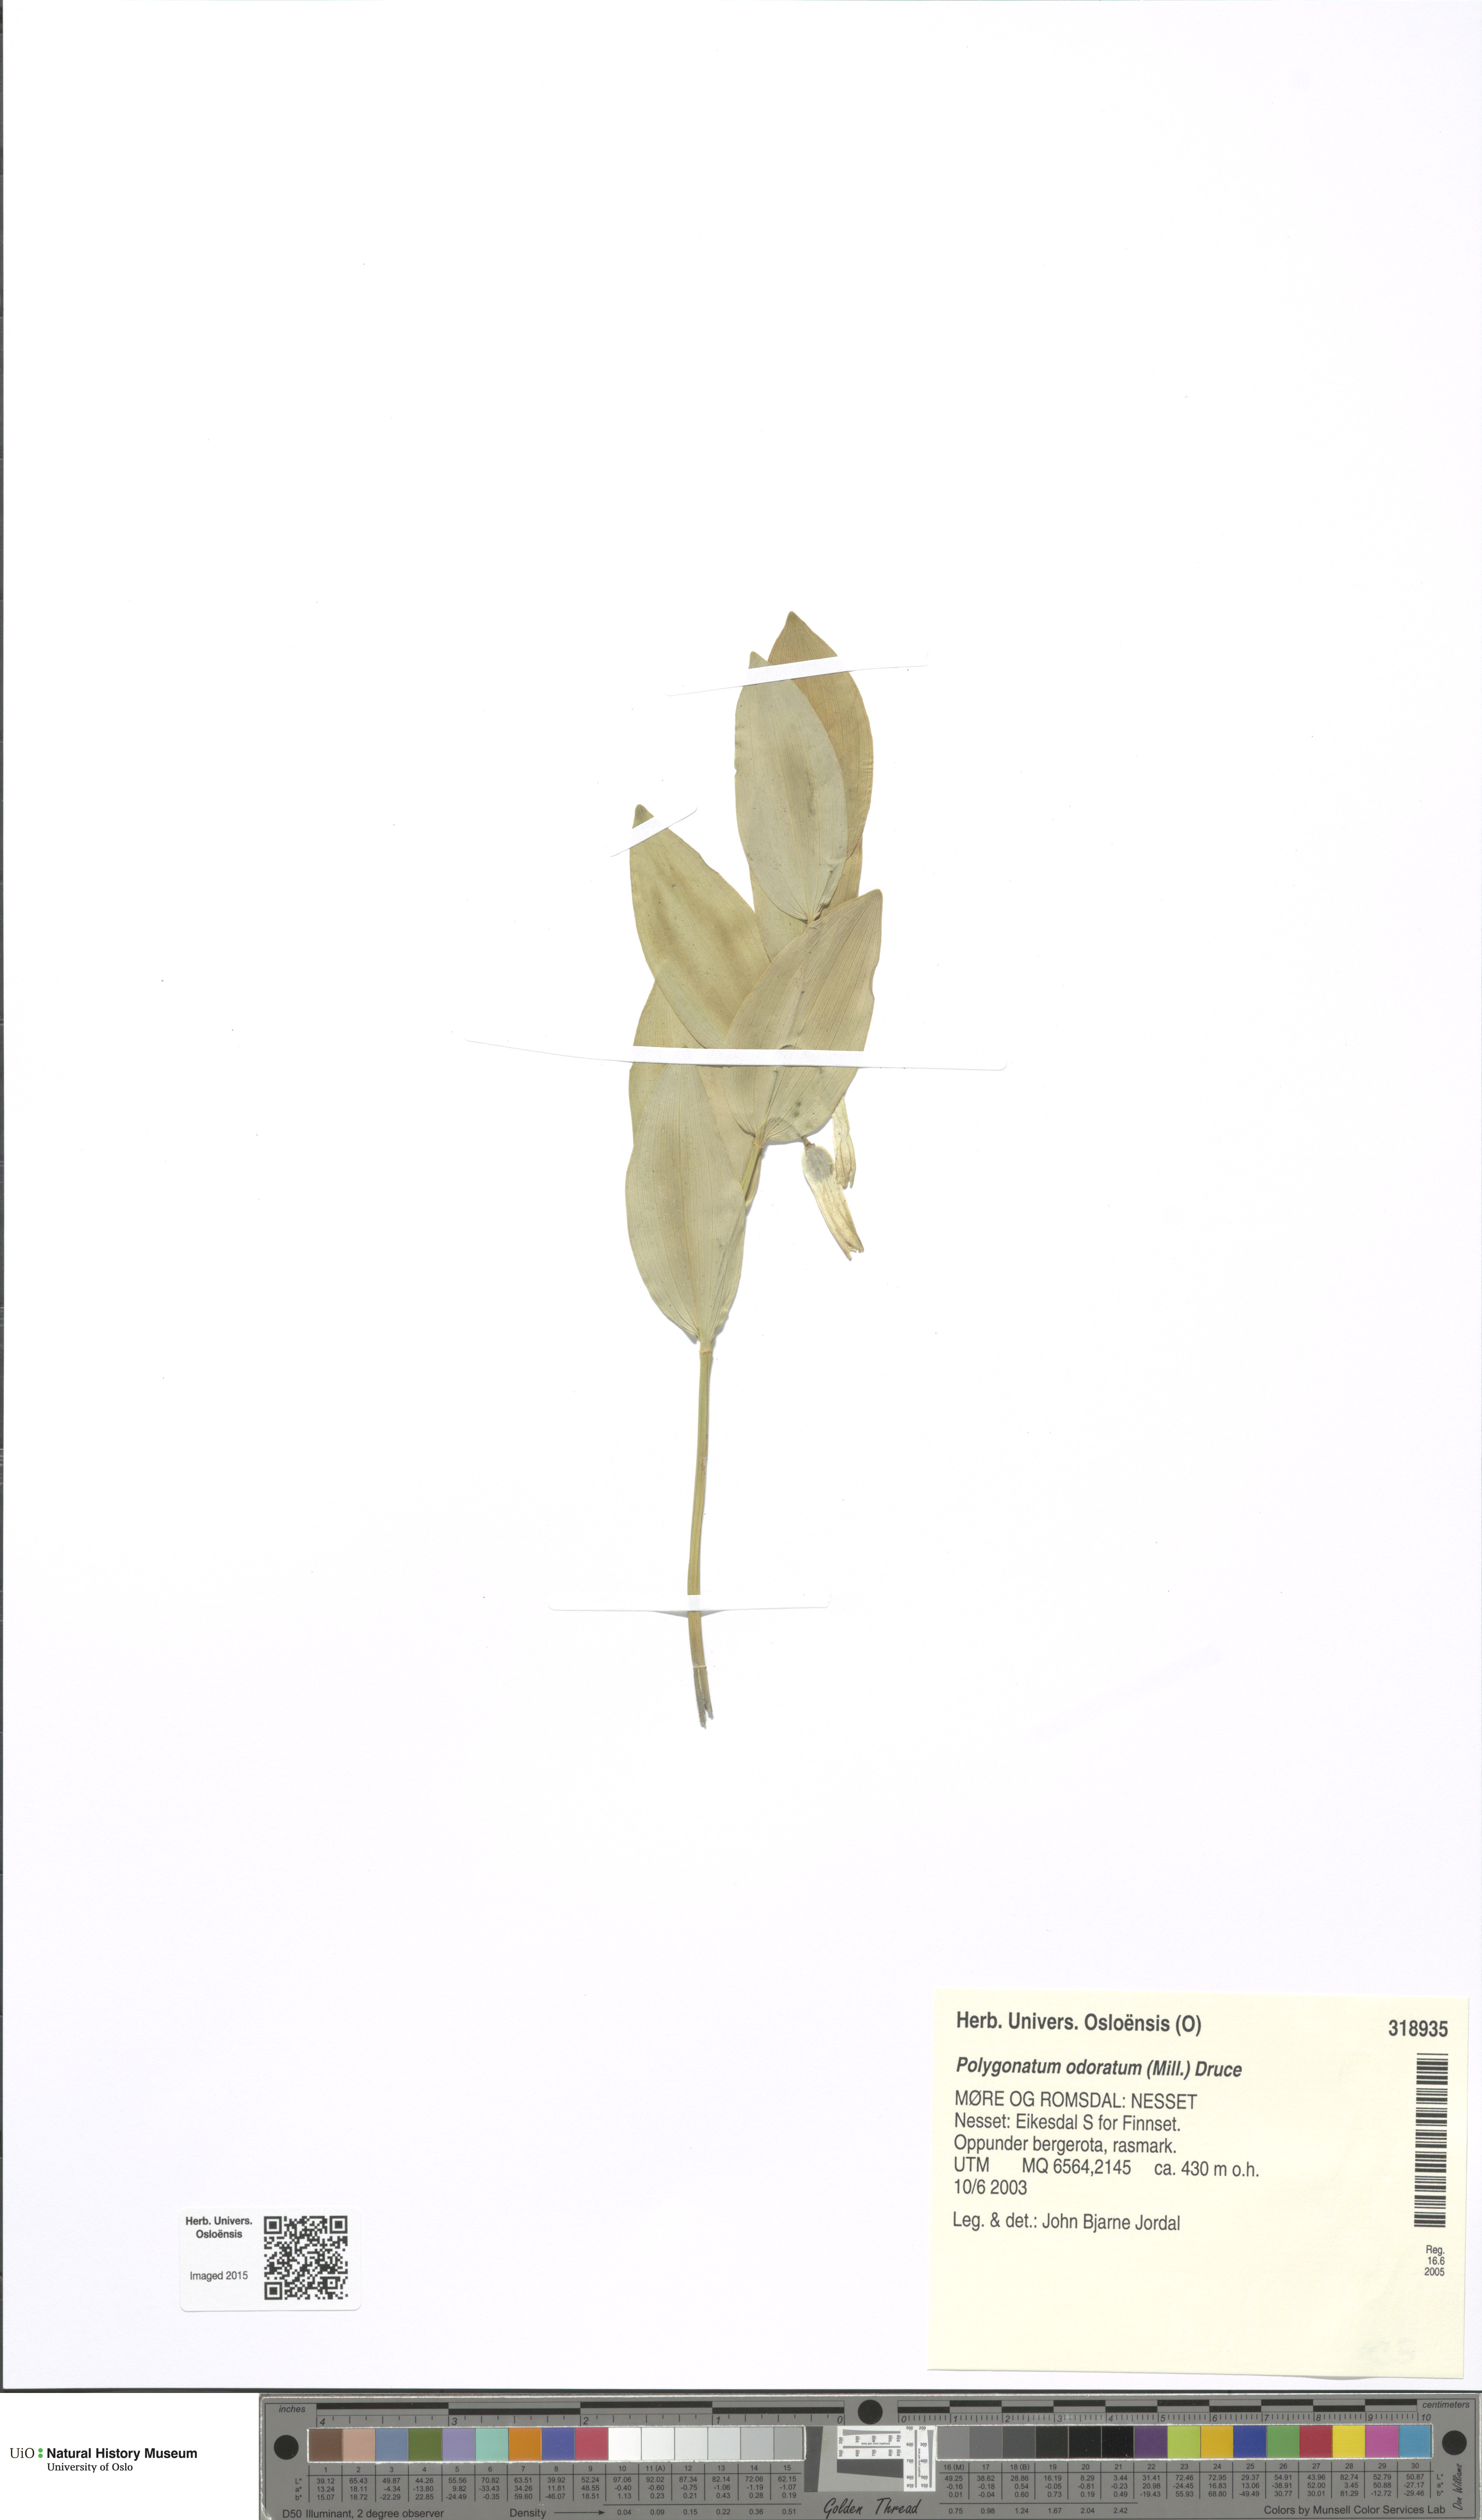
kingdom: Plantae
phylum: Tracheophyta
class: Liliopsida
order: Asparagales
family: Asparagaceae
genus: Polygonatum
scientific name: Polygonatum odoratum
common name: Angular solomon's-seal
